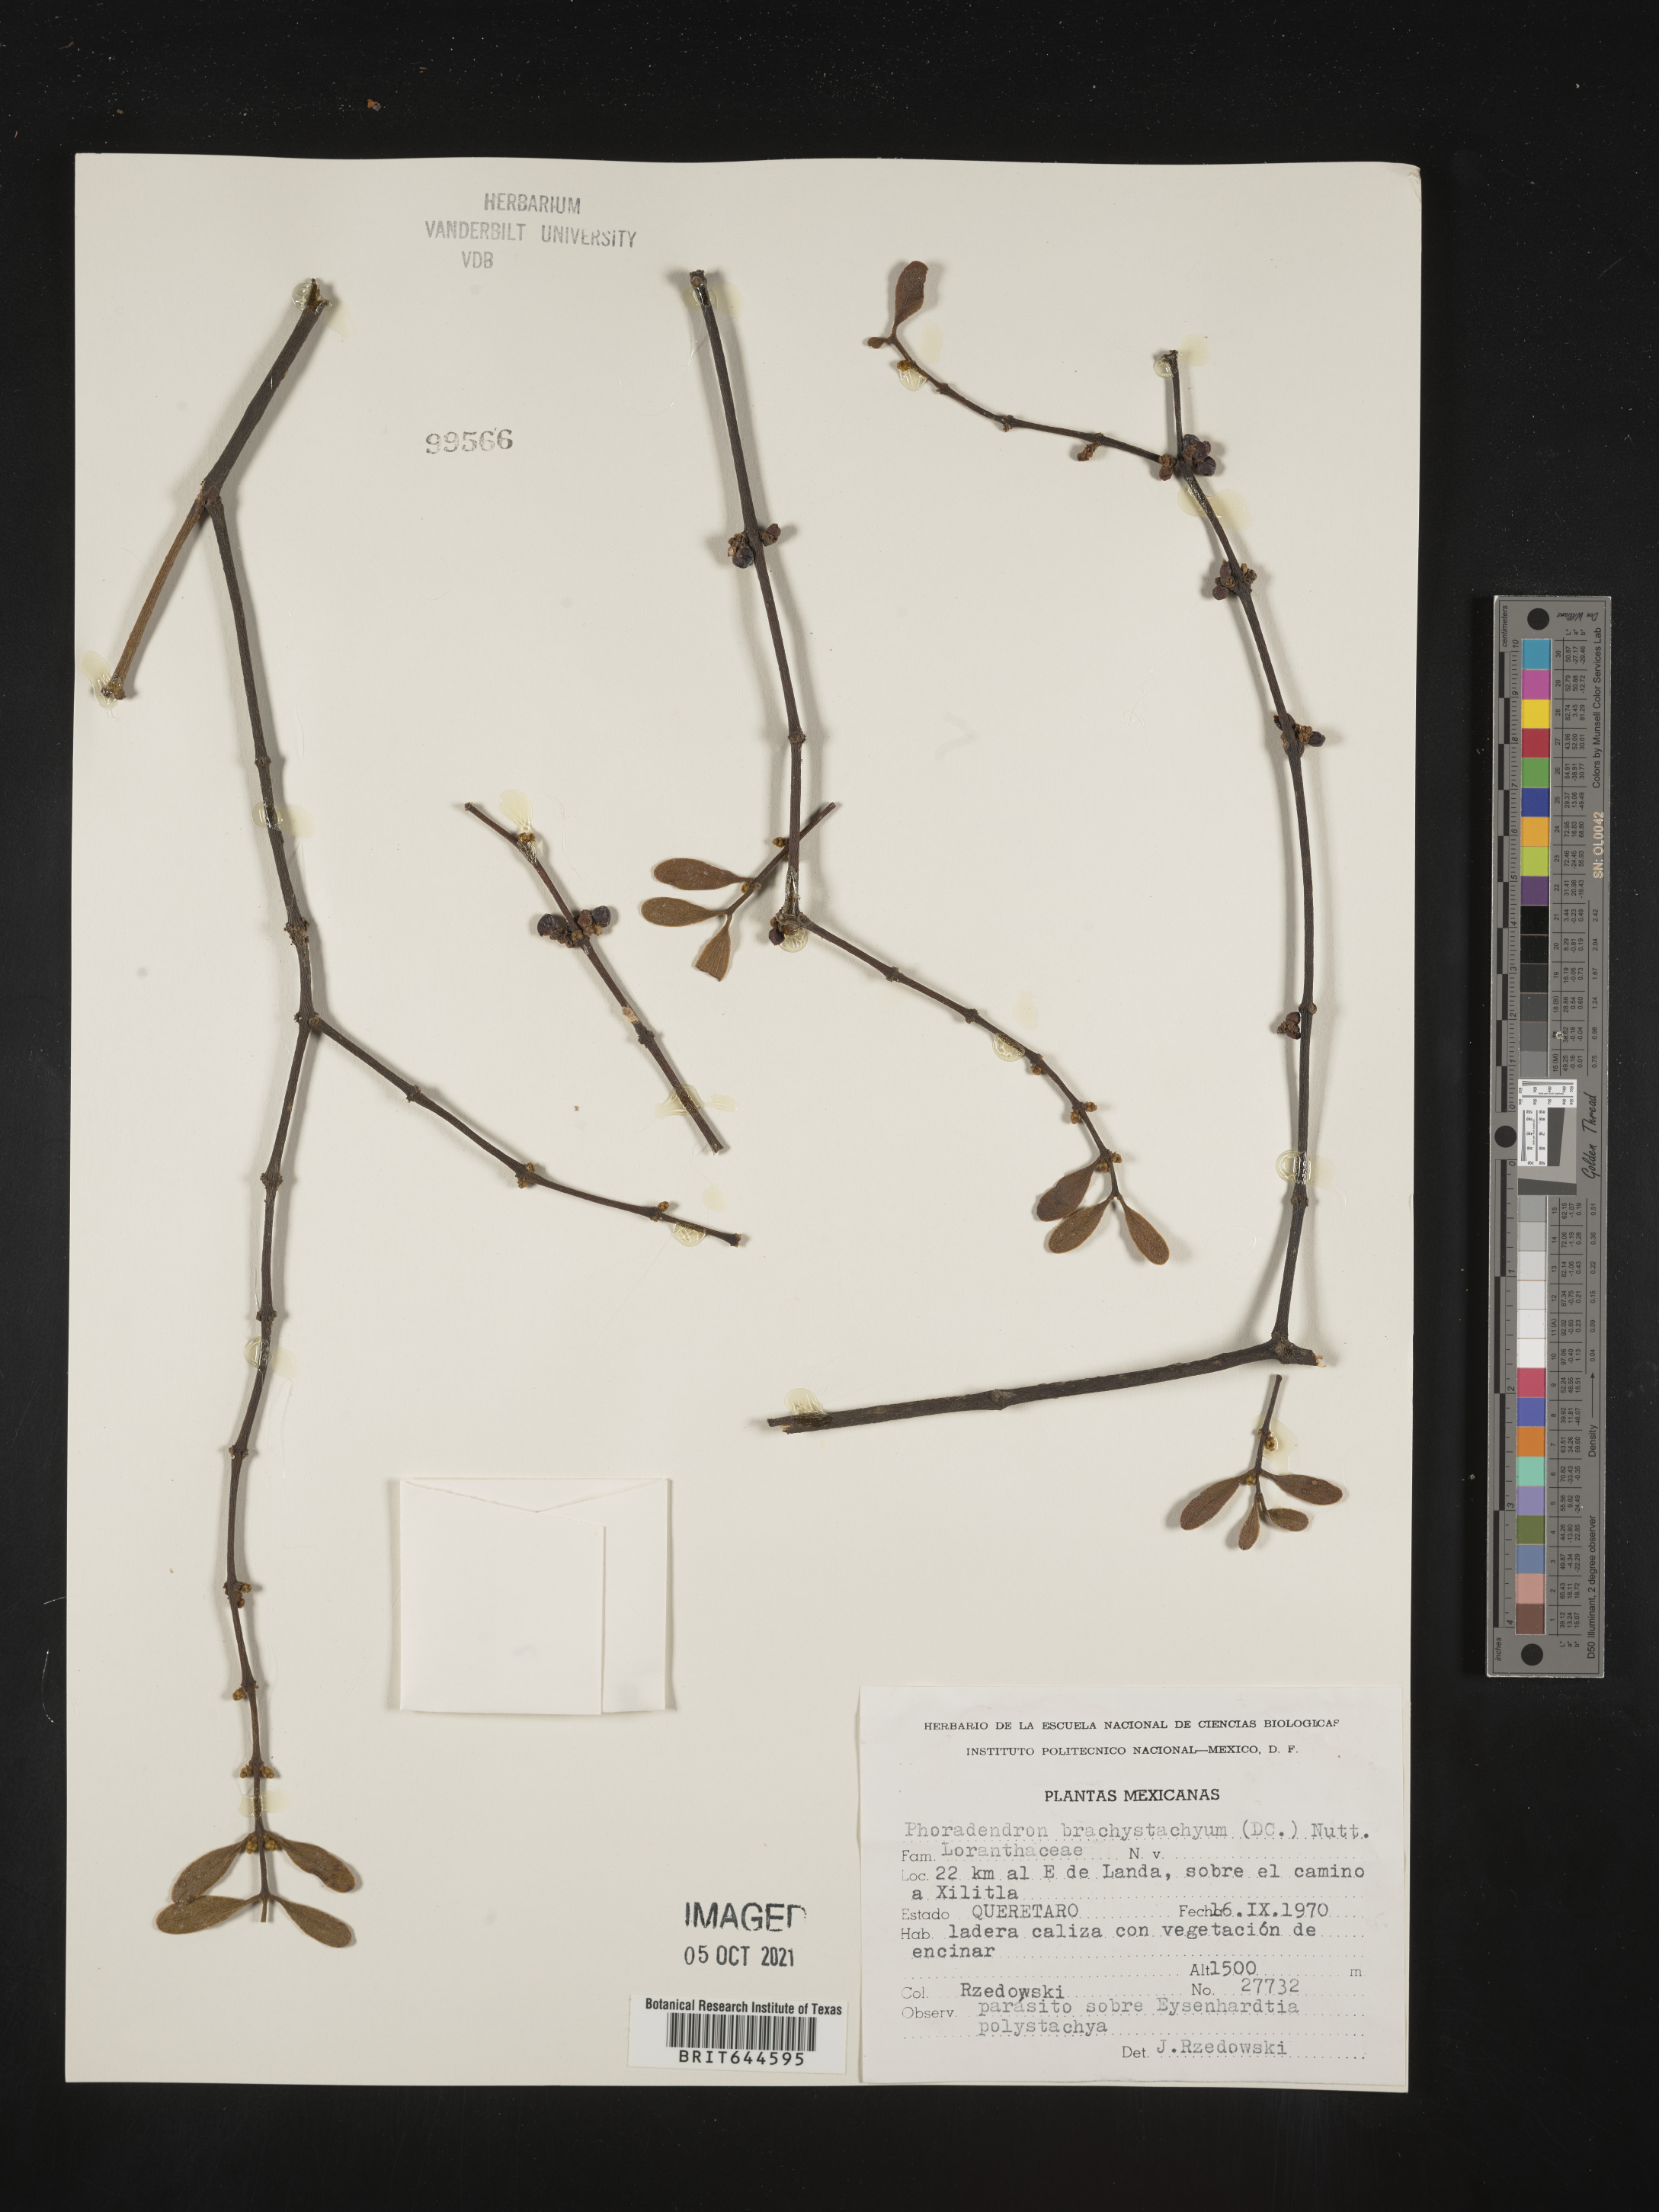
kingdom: Plantae
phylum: Tracheophyta
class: Magnoliopsida
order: Santalales
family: Viscaceae
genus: Phoradendron
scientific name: Phoradendron
